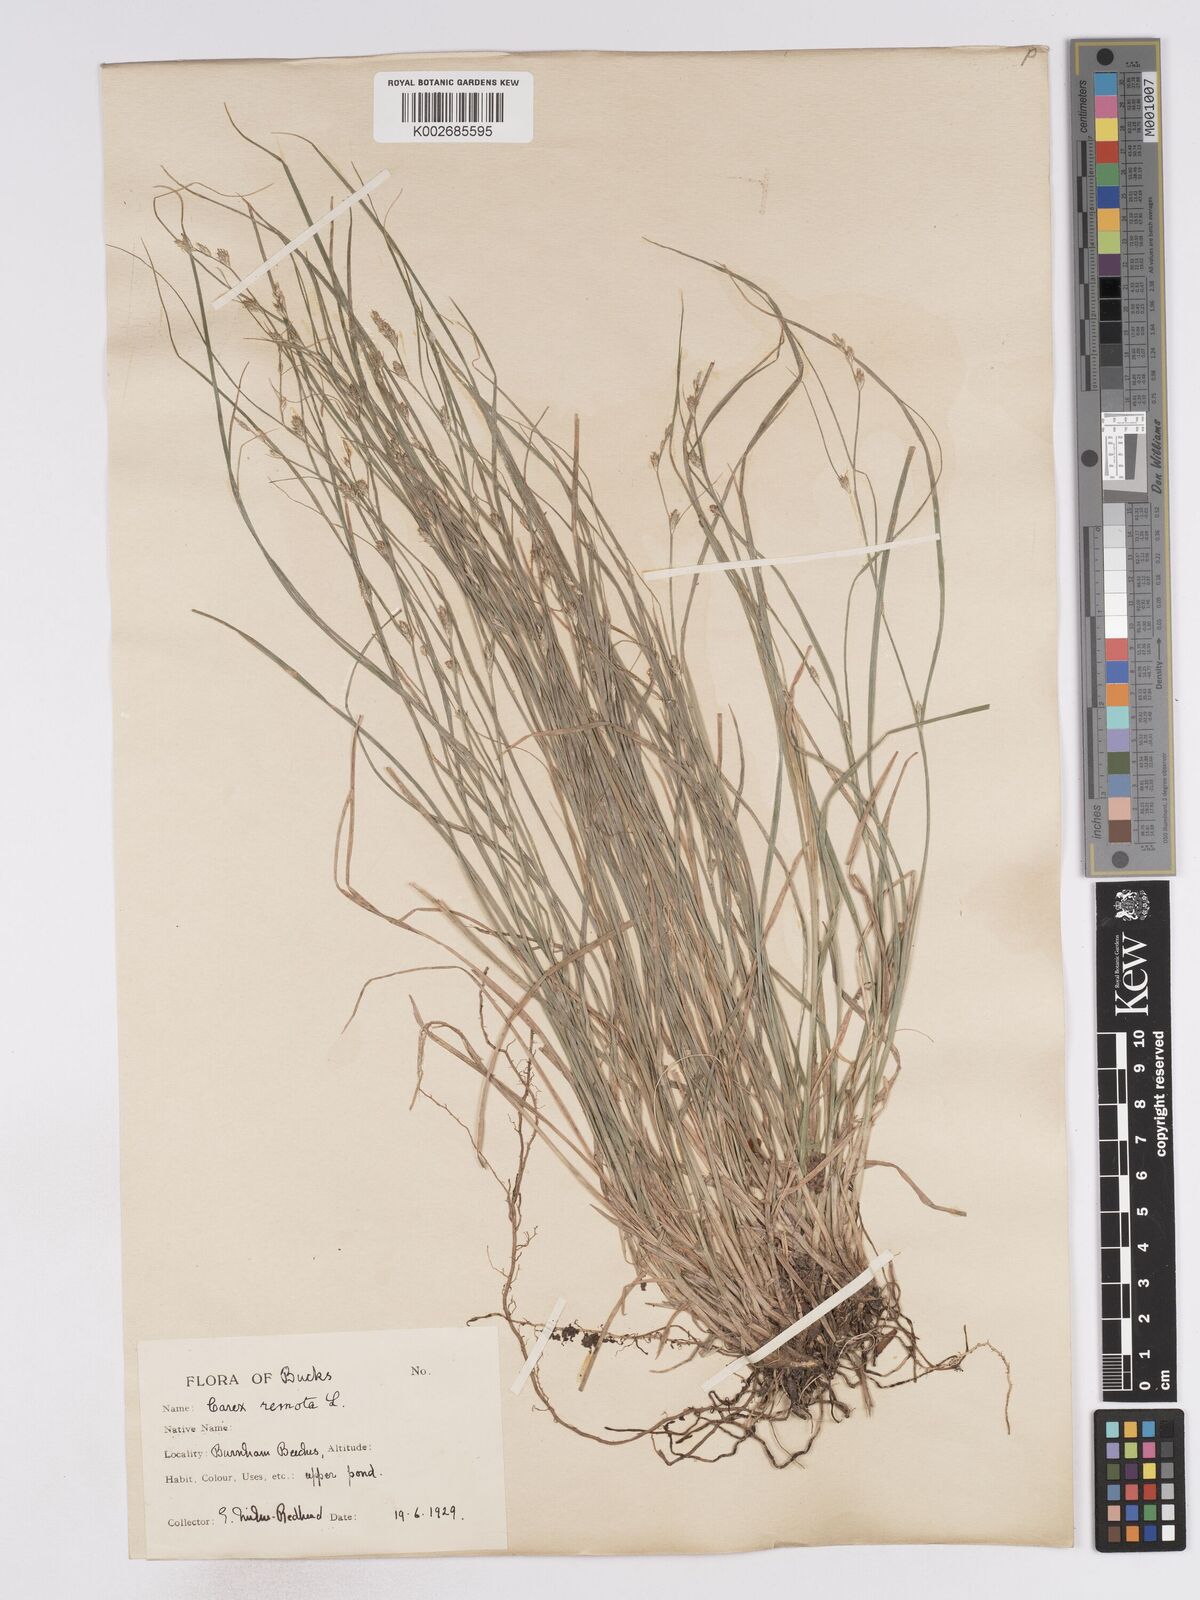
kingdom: Plantae
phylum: Tracheophyta
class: Liliopsida
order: Poales
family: Cyperaceae
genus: Carex
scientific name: Carex remota
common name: Remote sedge
